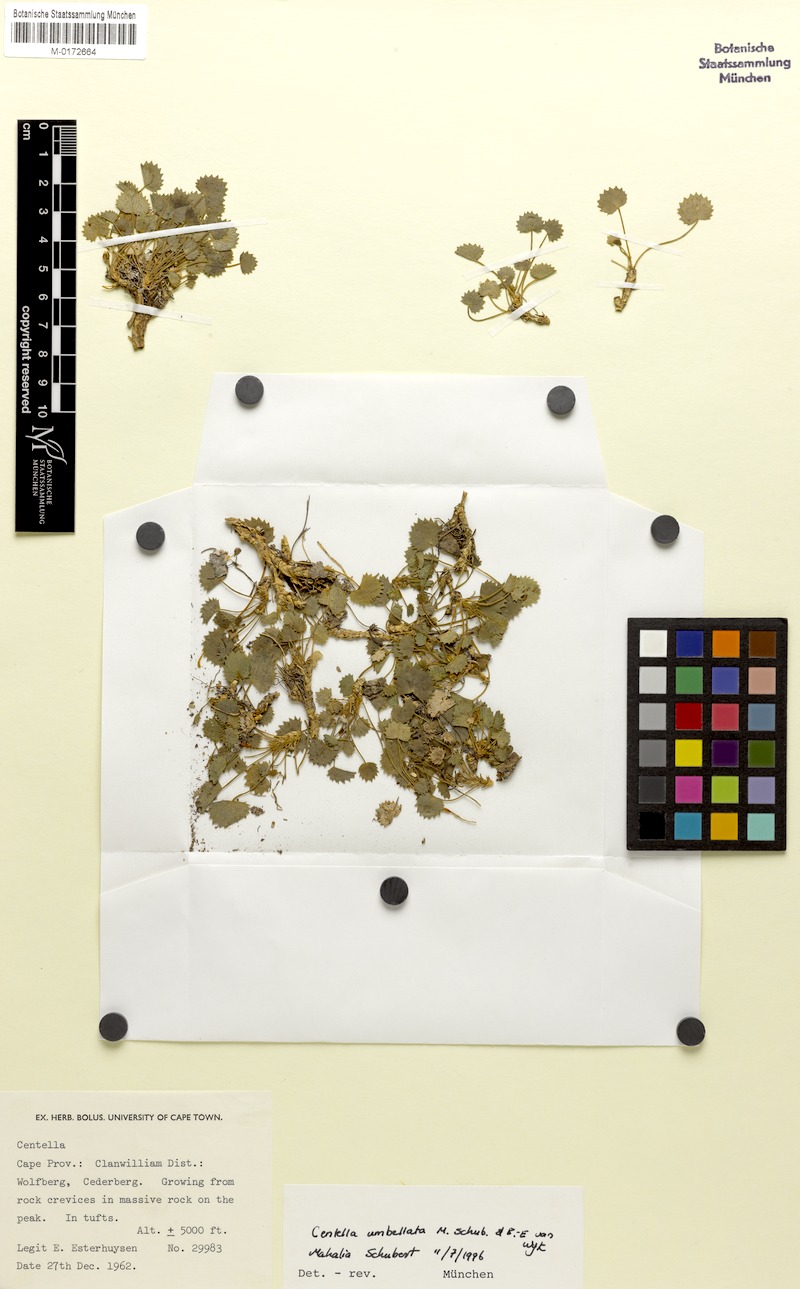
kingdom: Plantae
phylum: Tracheophyta
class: Magnoliopsida
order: Apiales
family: Apiaceae
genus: Centella
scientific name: Centella umbellata
